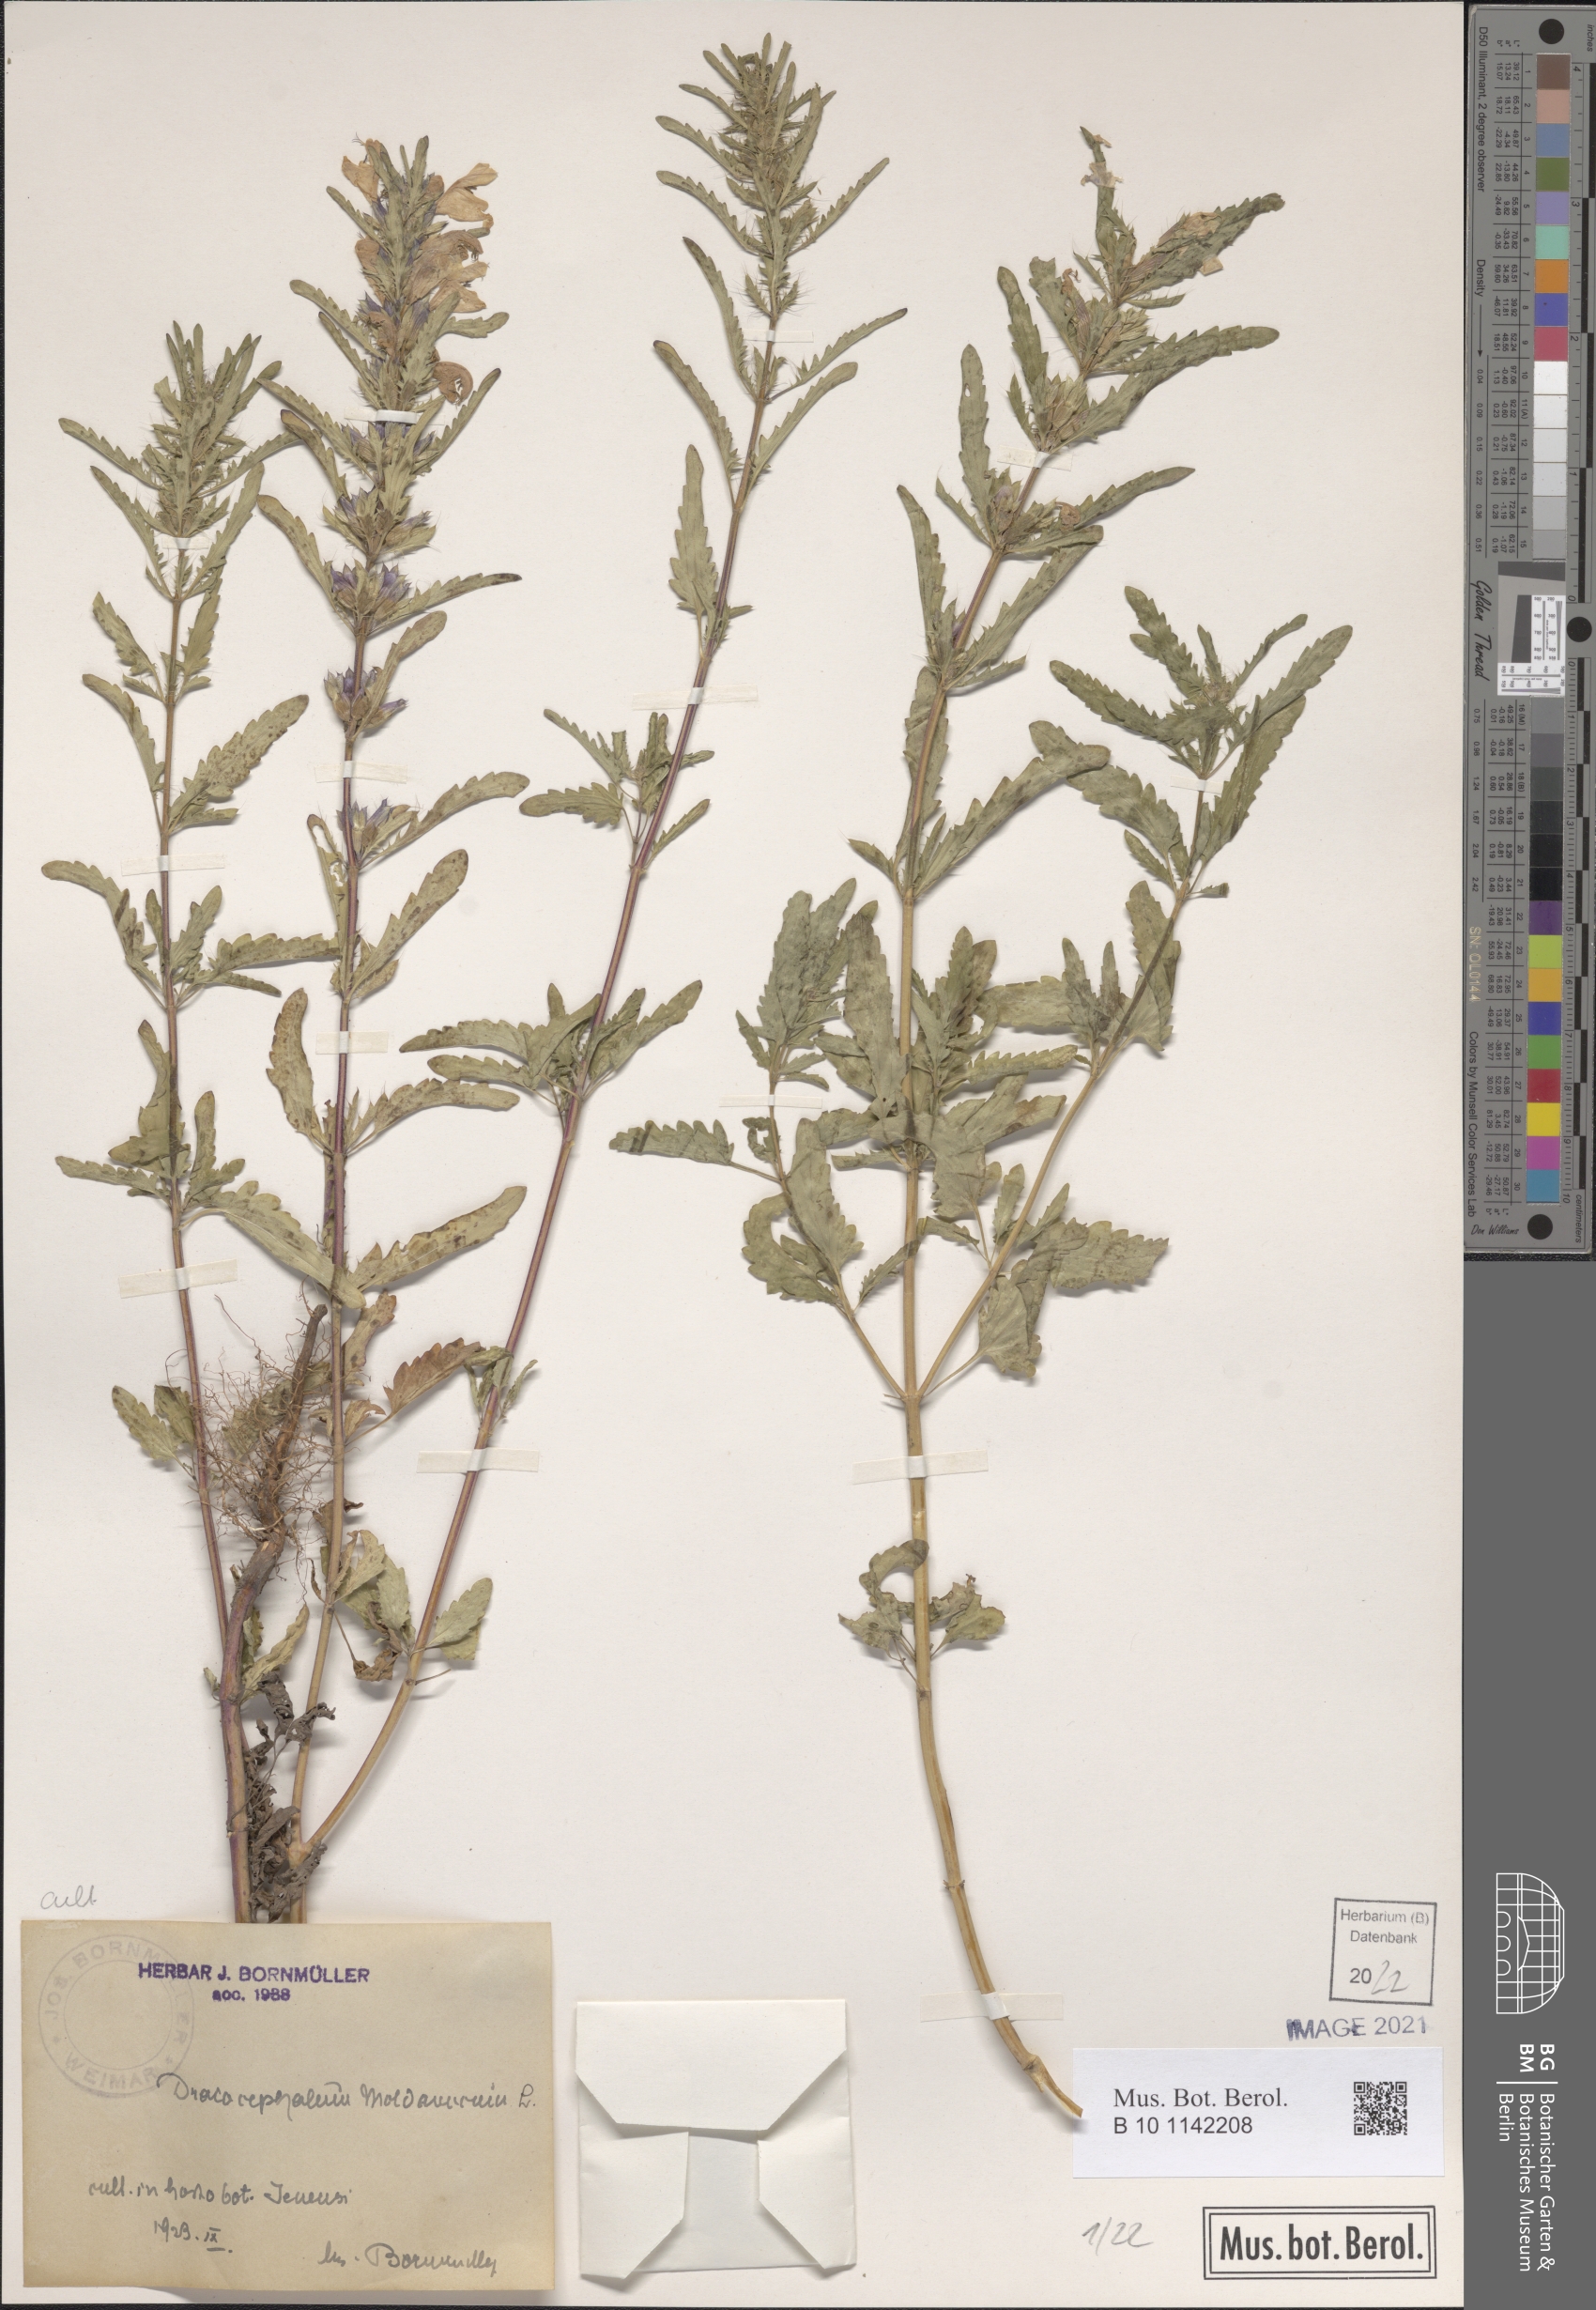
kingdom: Plantae
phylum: Tracheophyta
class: Magnoliopsida
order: Lamiales
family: Lamiaceae
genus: Dracocephalum
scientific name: Dracocephalum moldavica
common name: Moldavian dragonhead
